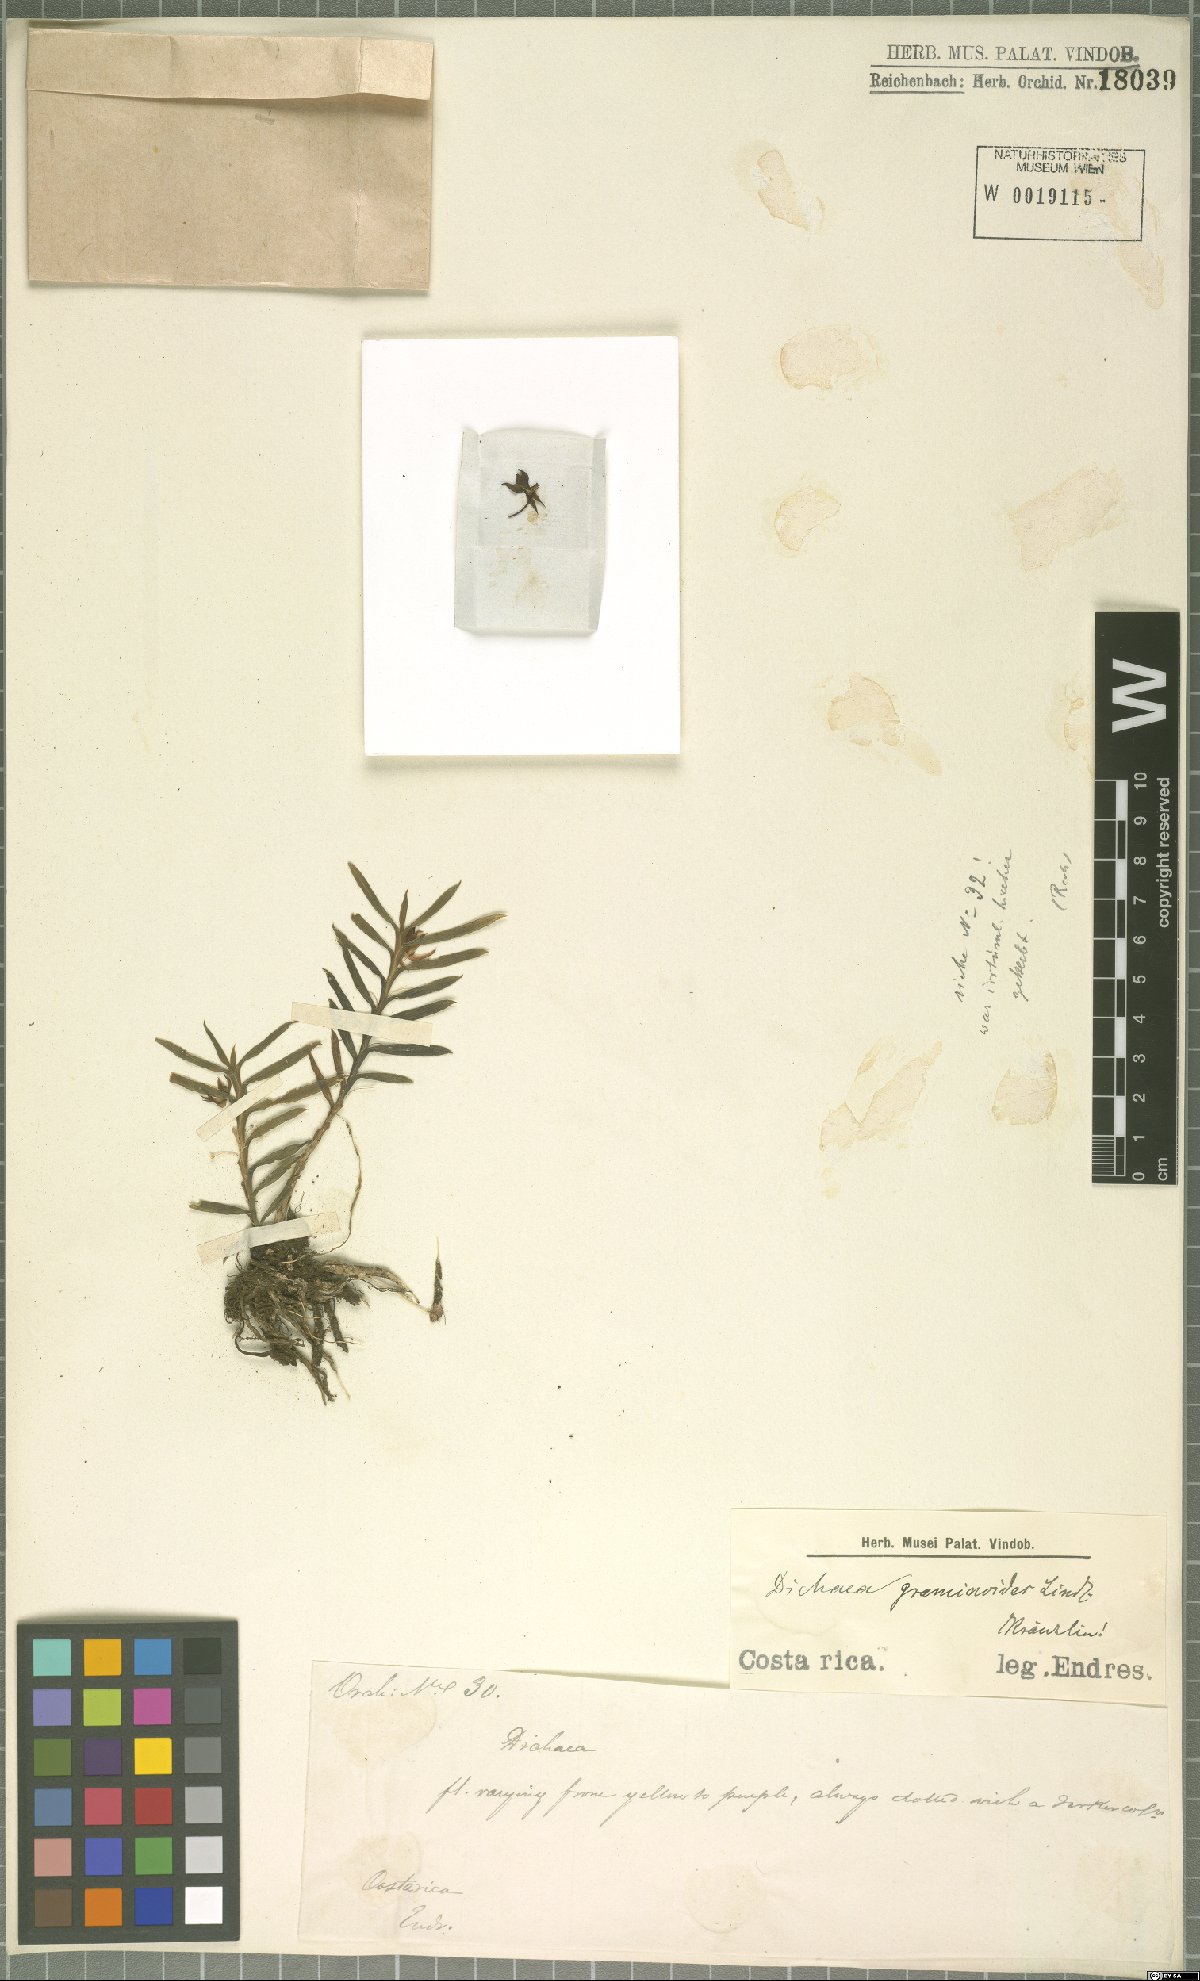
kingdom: Plantae
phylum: Tracheophyta
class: Liliopsida
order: Asparagales
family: Orchidaceae
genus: Dichaea
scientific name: Dichaea graminoides
